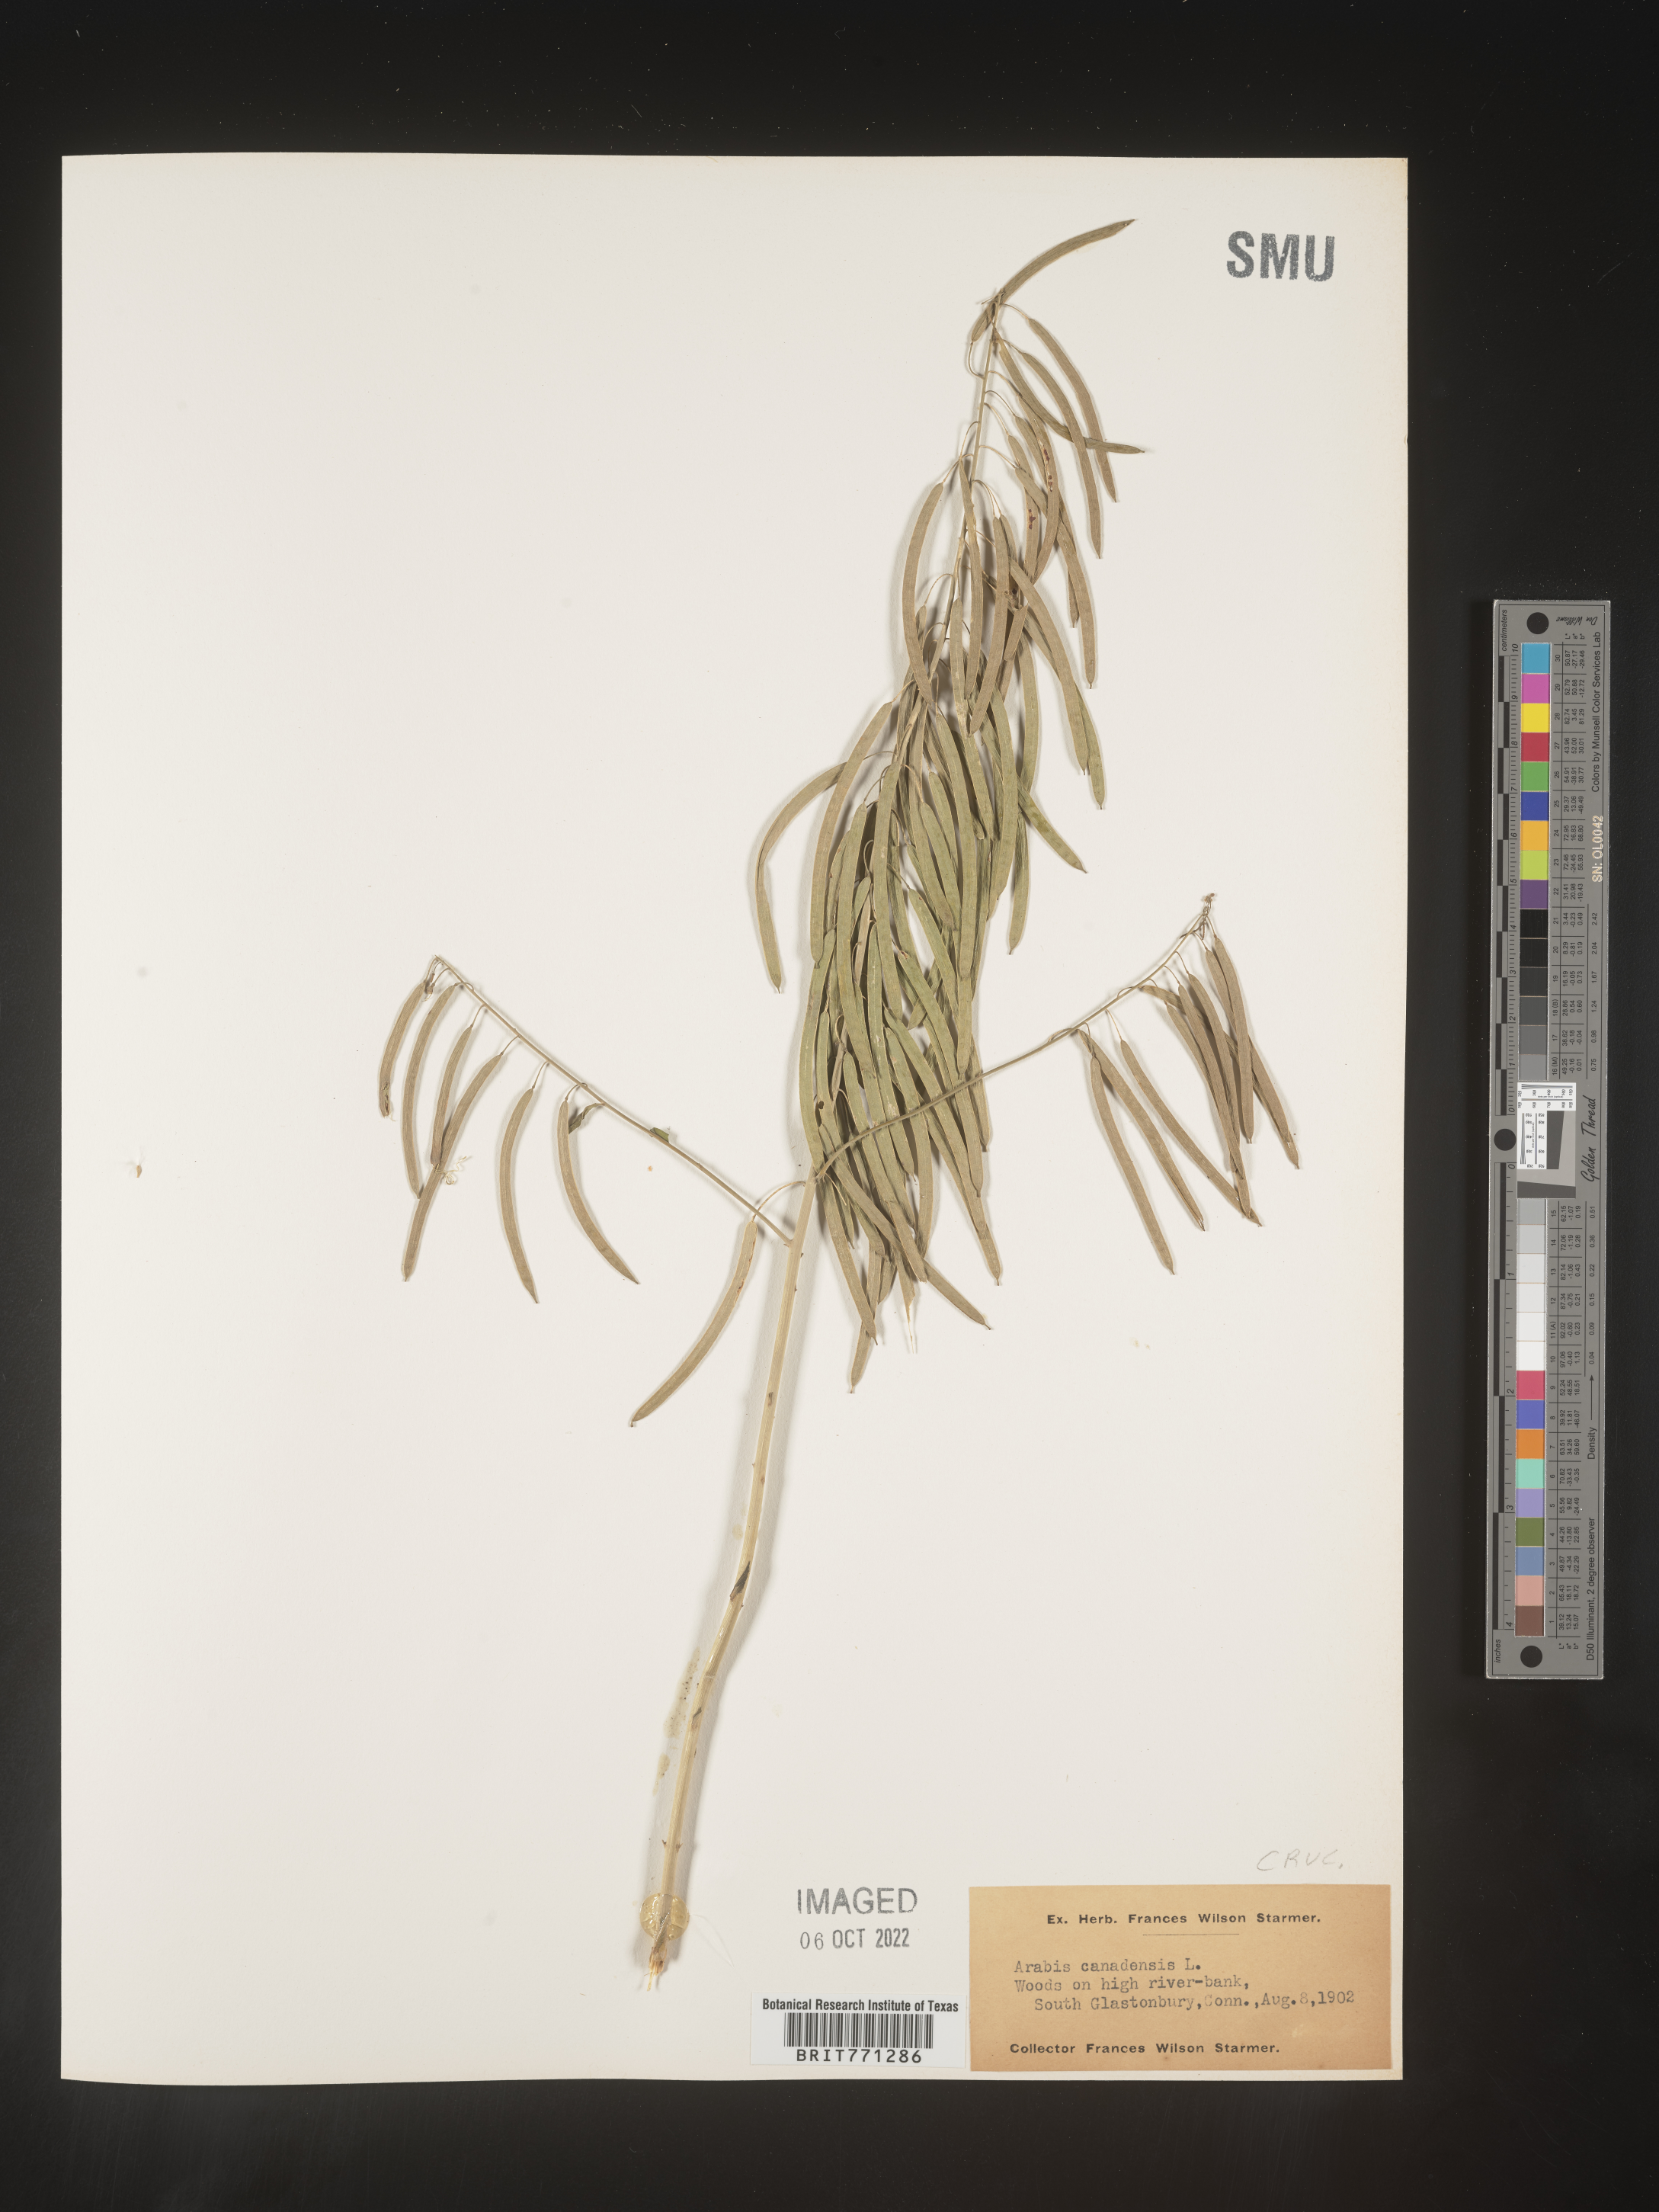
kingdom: Plantae
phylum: Tracheophyta
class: Magnoliopsida
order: Brassicales
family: Brassicaceae
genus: Borodinia
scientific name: Borodinia canadensis
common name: Sicklepod
